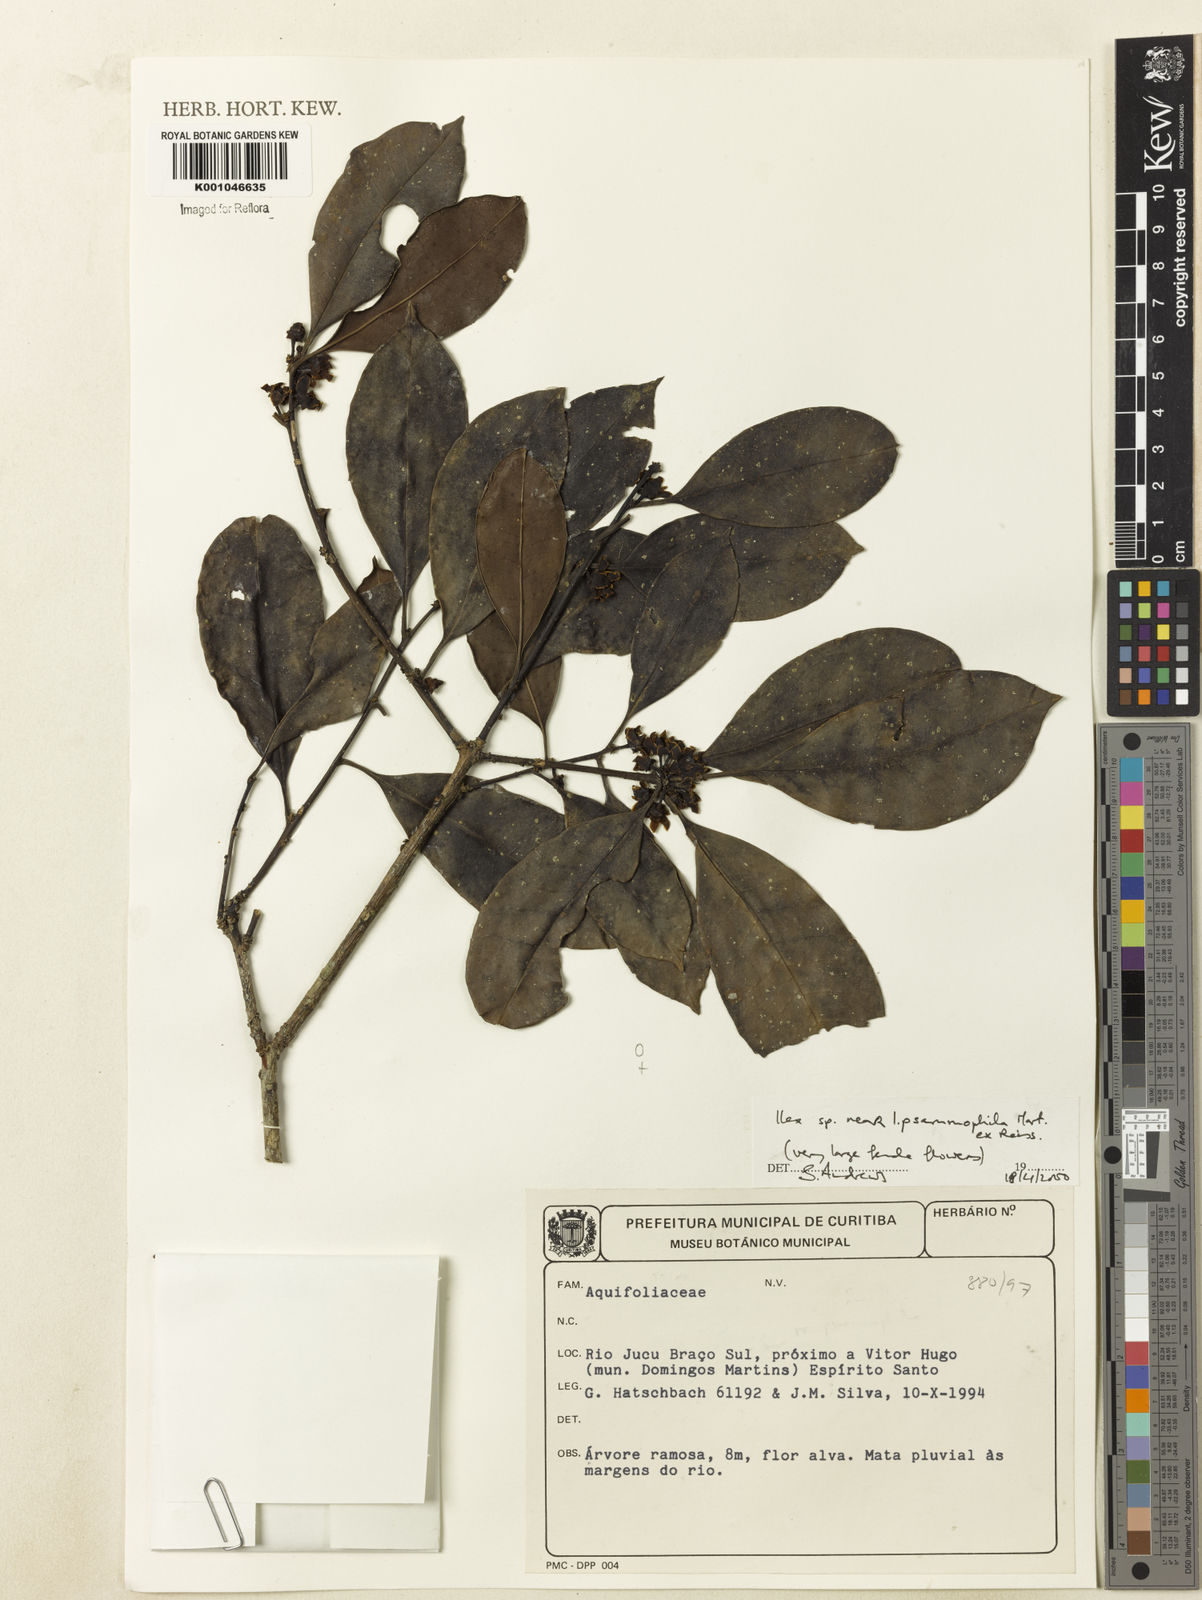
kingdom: Plantae
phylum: Tracheophyta
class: Magnoliopsida
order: Aquifoliales
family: Aquifoliaceae
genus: Ilex
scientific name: Ilex psammophila
